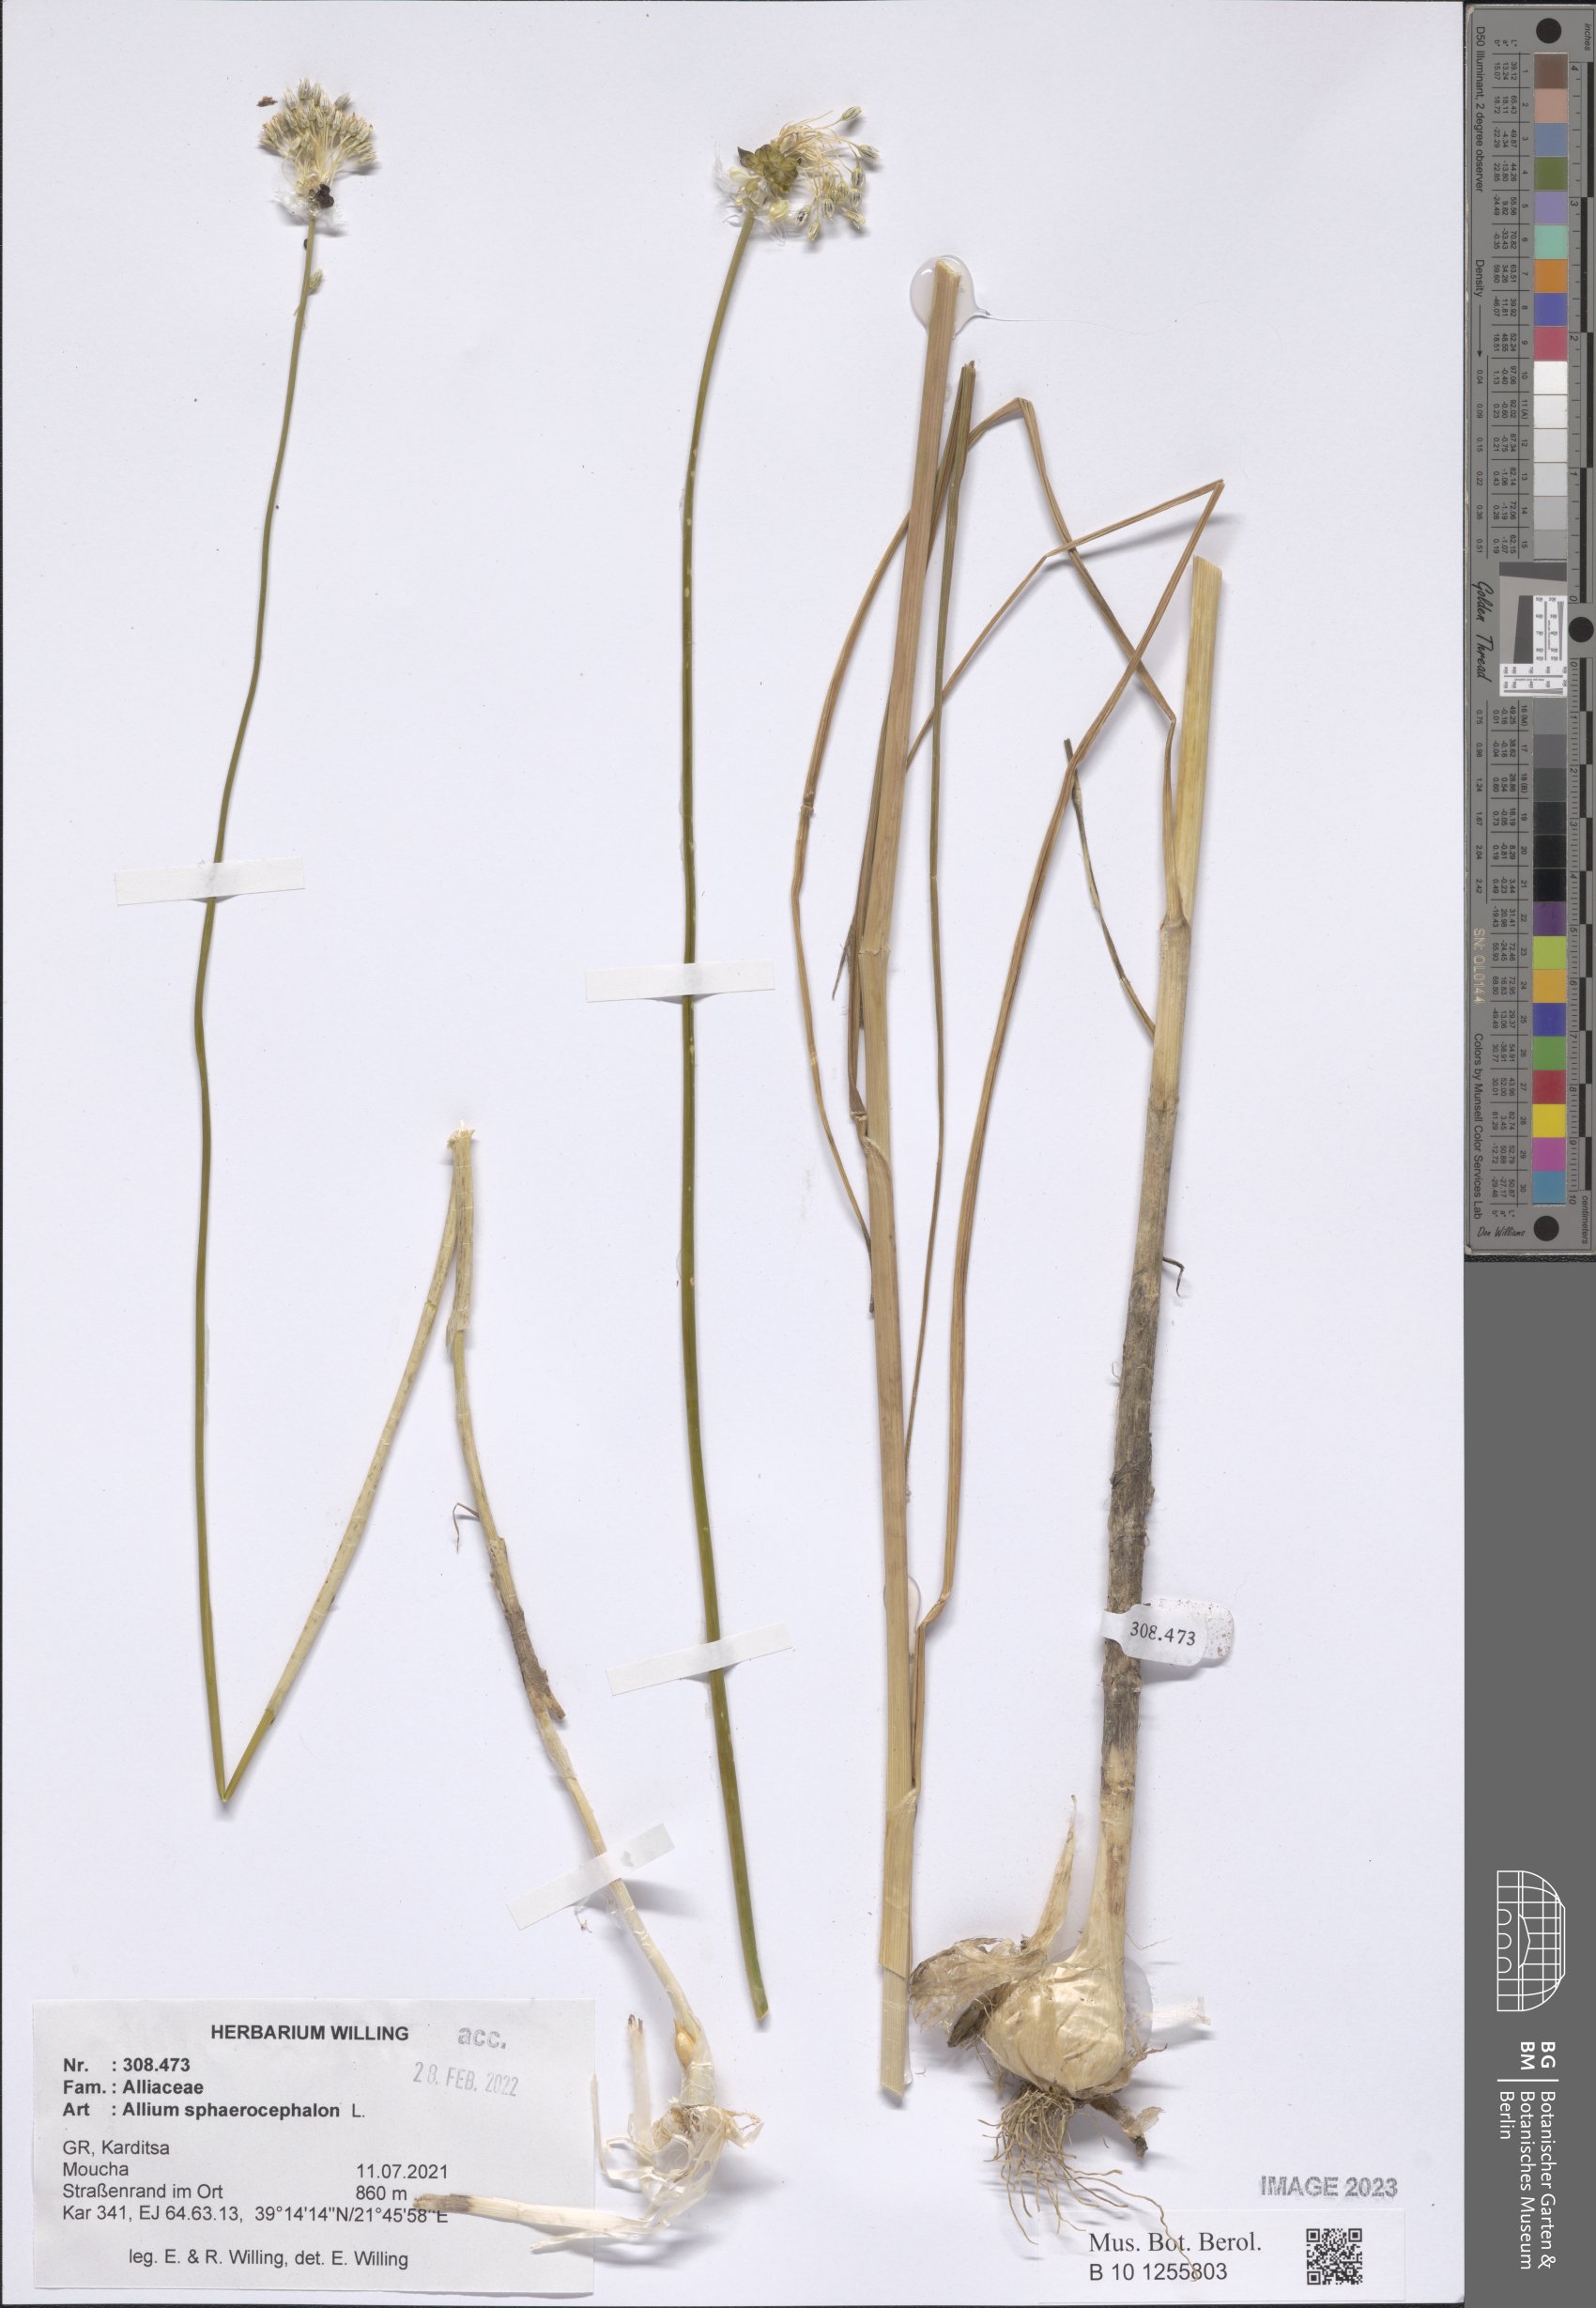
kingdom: Plantae
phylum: Tracheophyta
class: Liliopsida
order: Asparagales
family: Amaryllidaceae
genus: Allium
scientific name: Allium sphaerocephalon
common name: Round-headed leek
